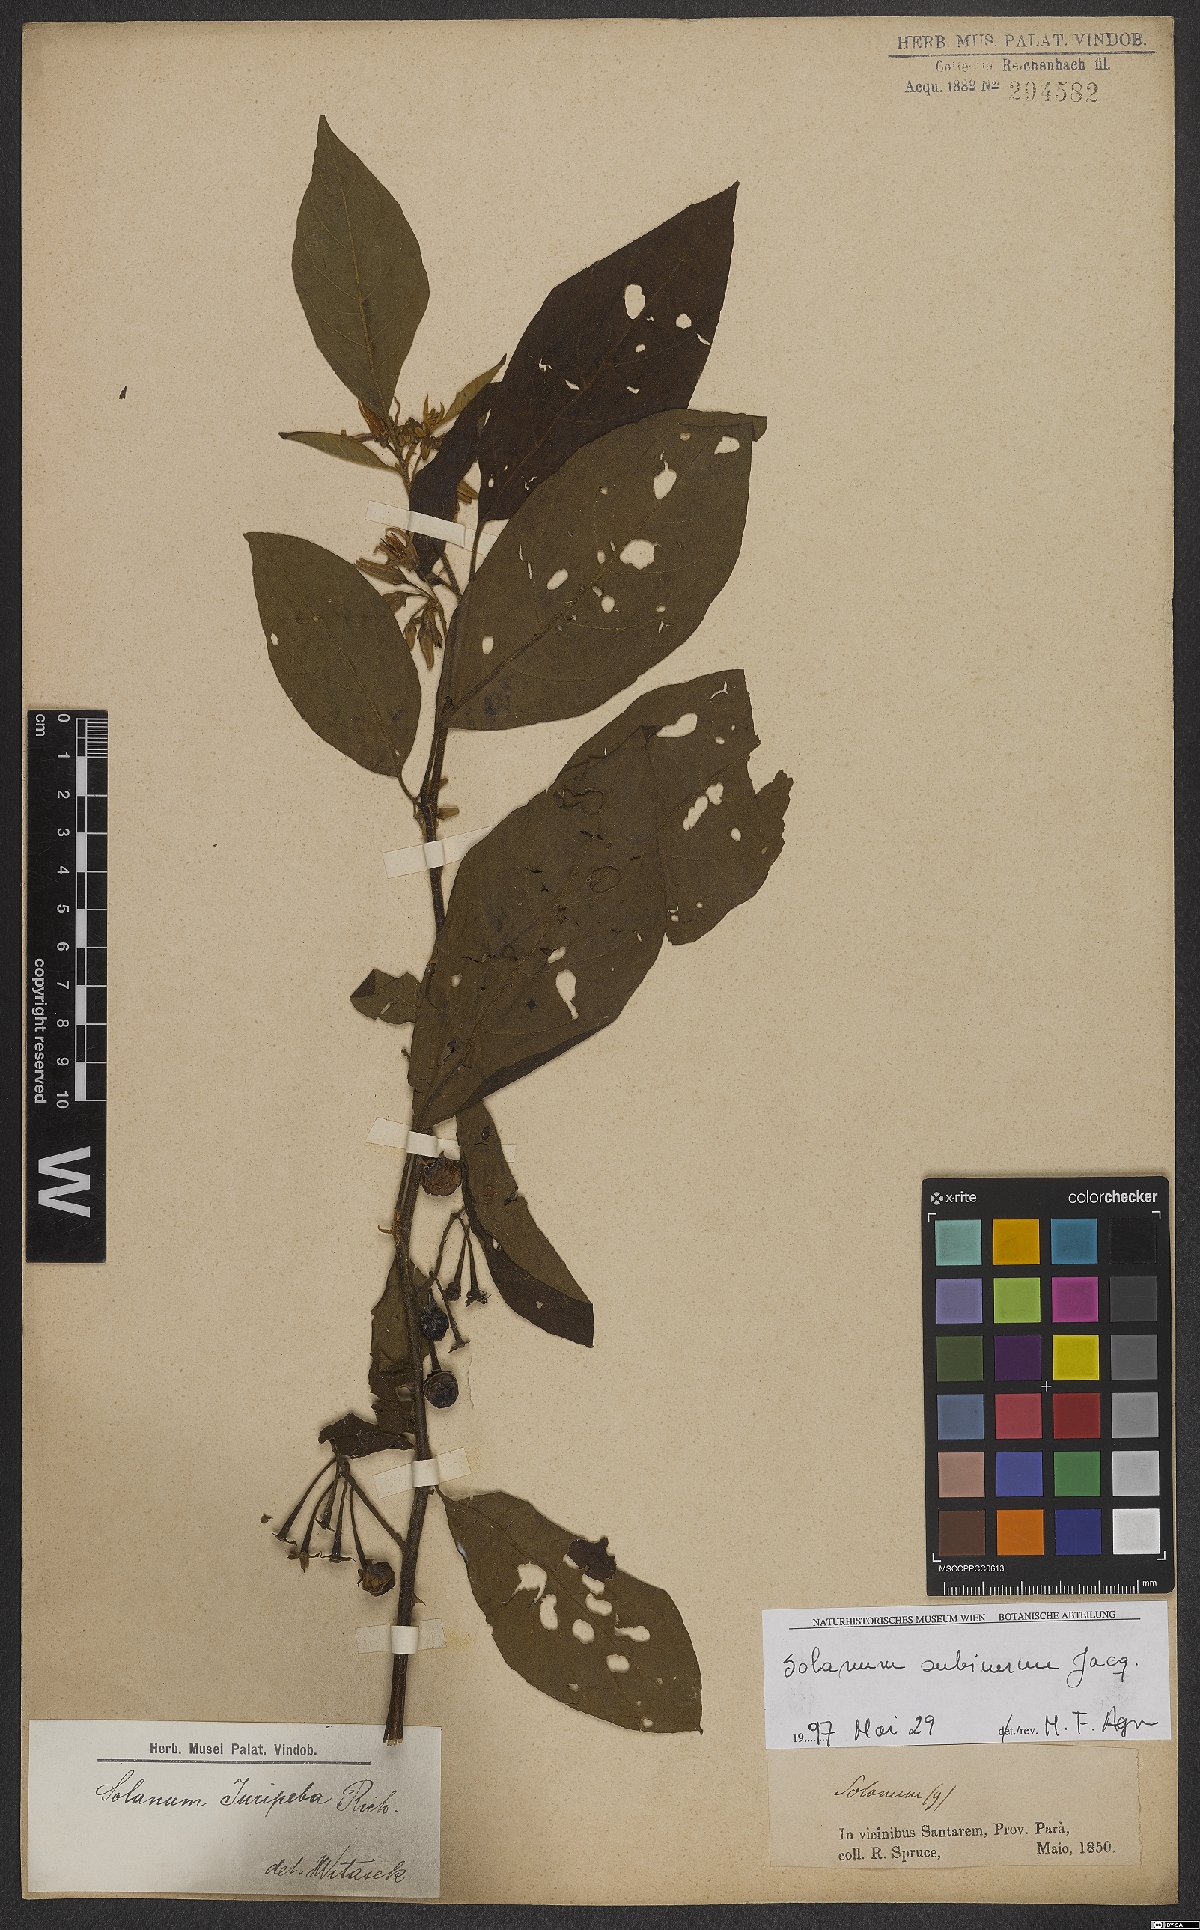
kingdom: Plantae
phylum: Tracheophyta
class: Magnoliopsida
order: Solanales
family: Solanaceae
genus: Solanum
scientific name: Solanum subinerme
